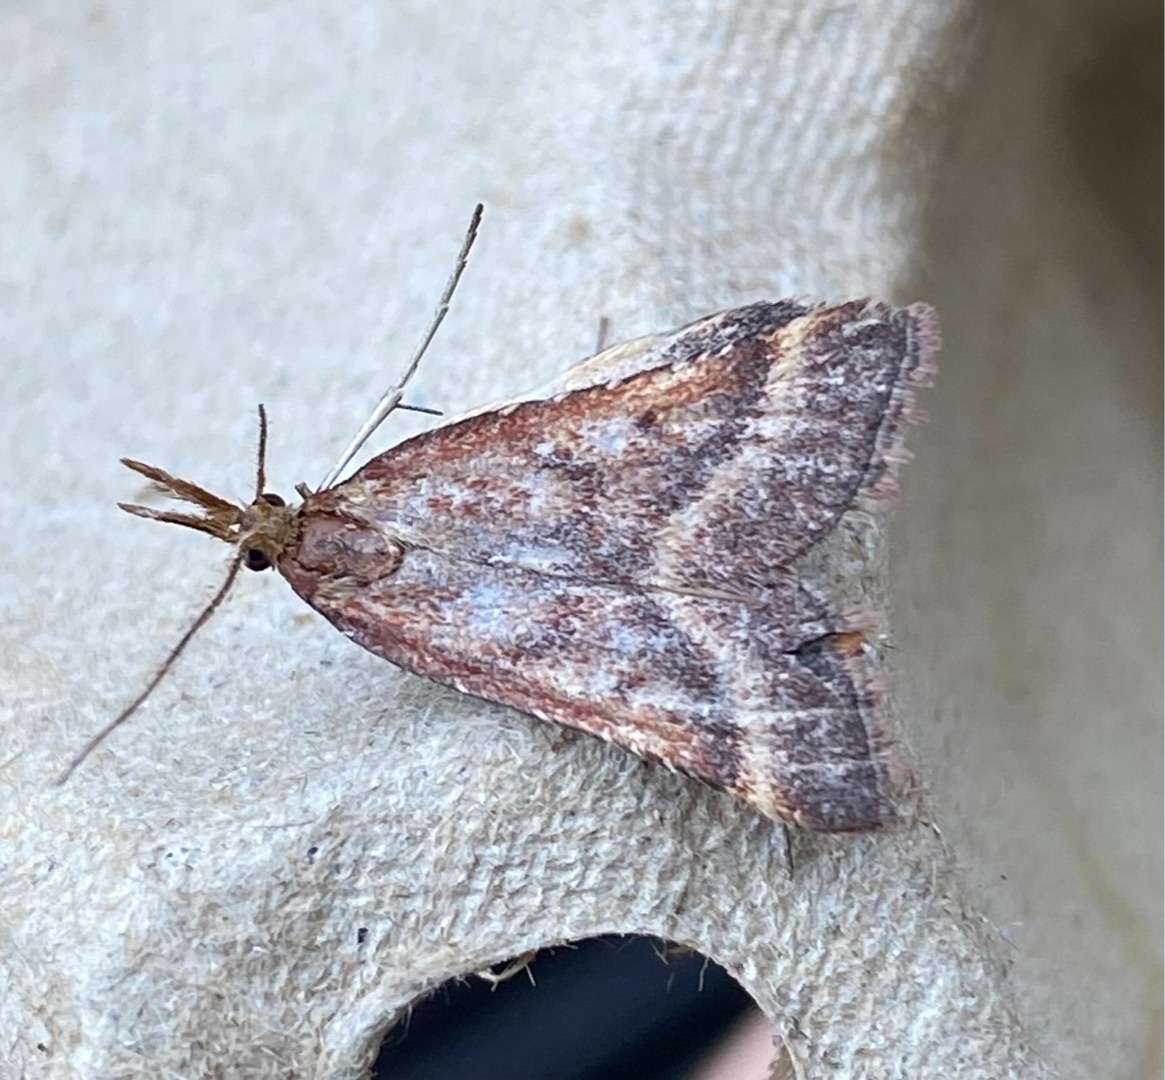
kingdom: Animalia
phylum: Arthropoda
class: Insecta
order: Lepidoptera
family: Pyralidae
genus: Synaphe
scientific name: Synaphe punctalis
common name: Spidsvinget moshalvmøl
